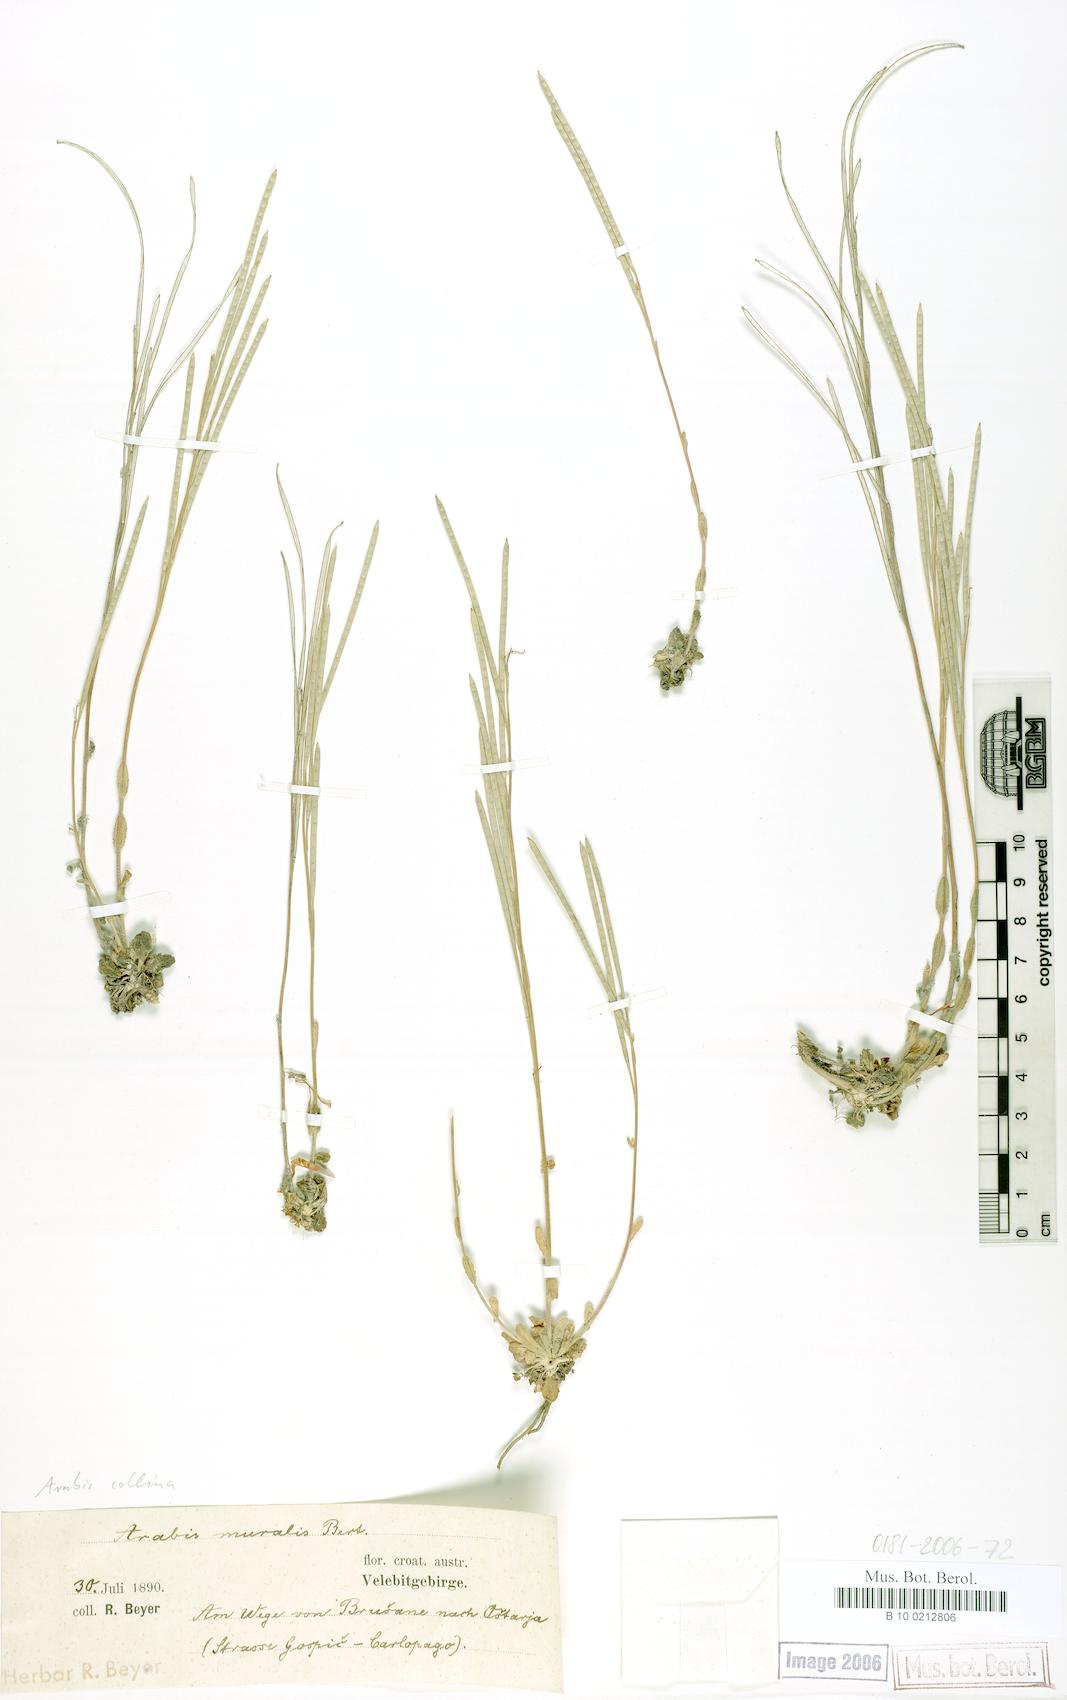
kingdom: Plantae
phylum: Tracheophyta
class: Magnoliopsida
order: Brassicales
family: Brassicaceae
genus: Arabis
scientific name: Arabis collina
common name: Rosy cress
